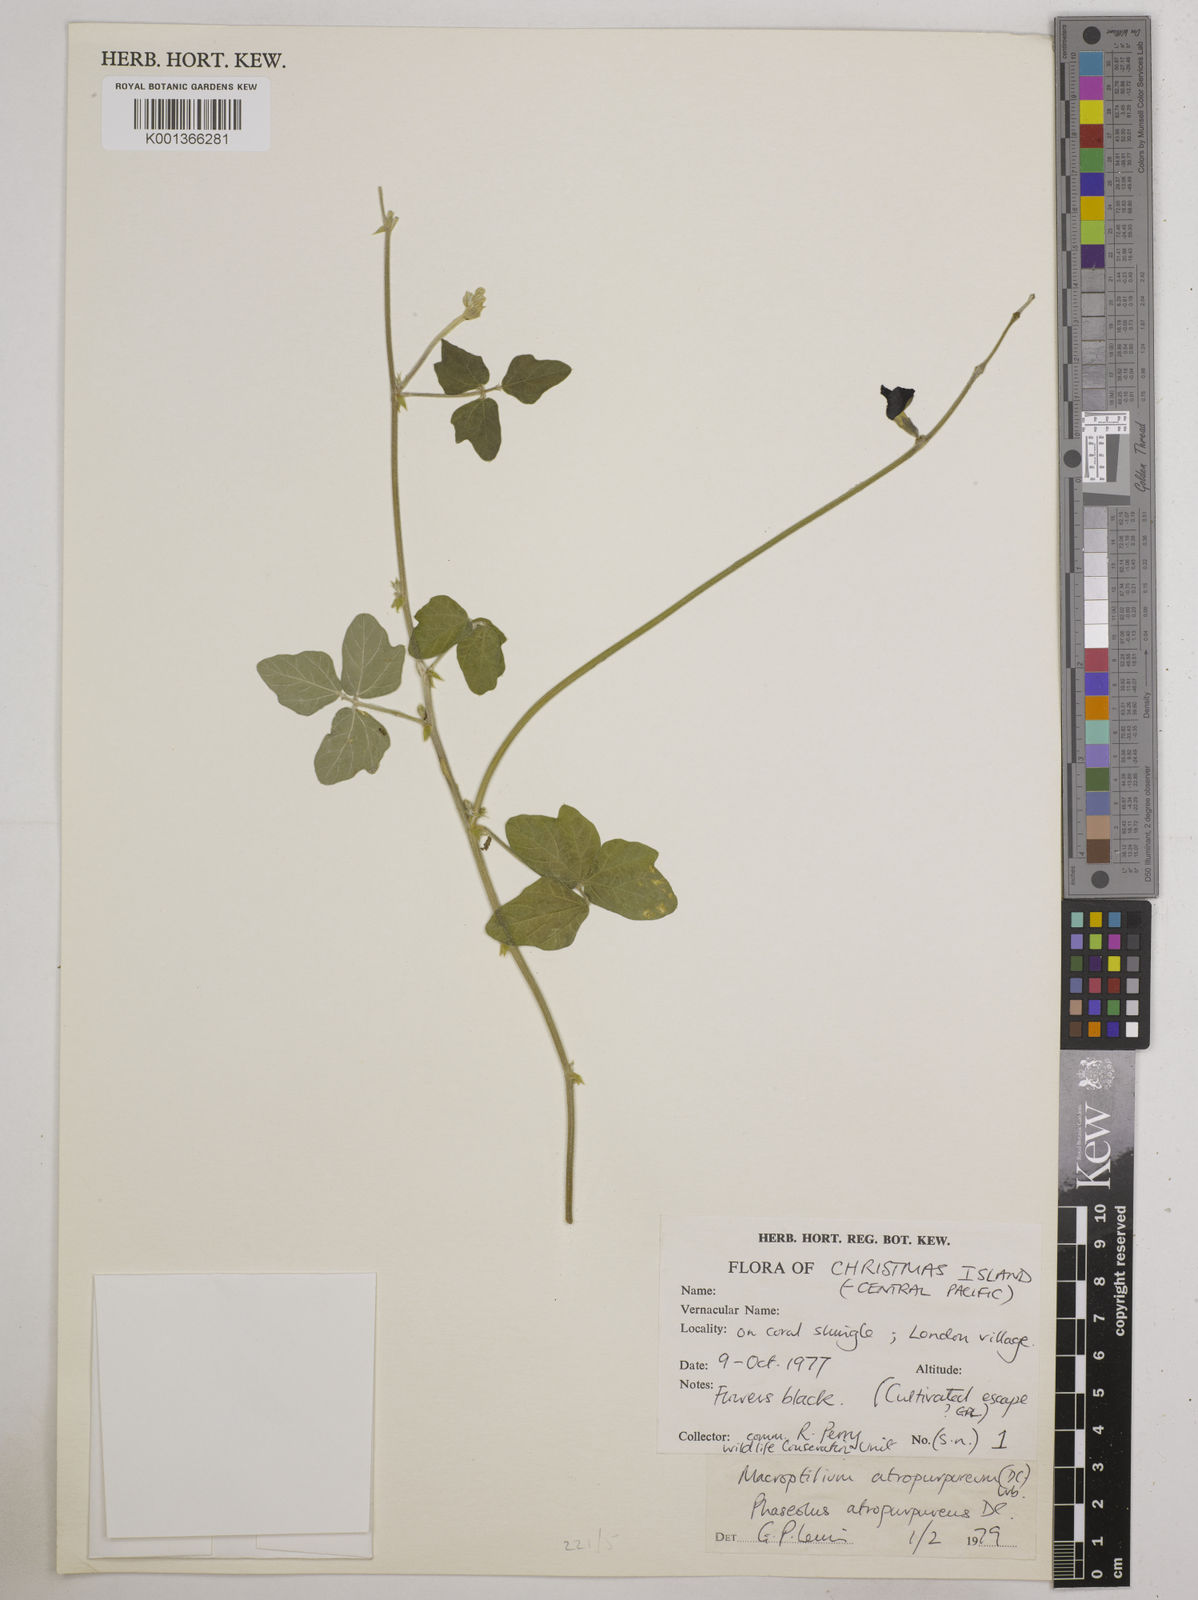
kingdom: Plantae
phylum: Tracheophyta
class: Magnoliopsida
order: Fabales
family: Fabaceae
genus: Macroptilium
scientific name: Macroptilium atropurpureum
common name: Purple bushbean
